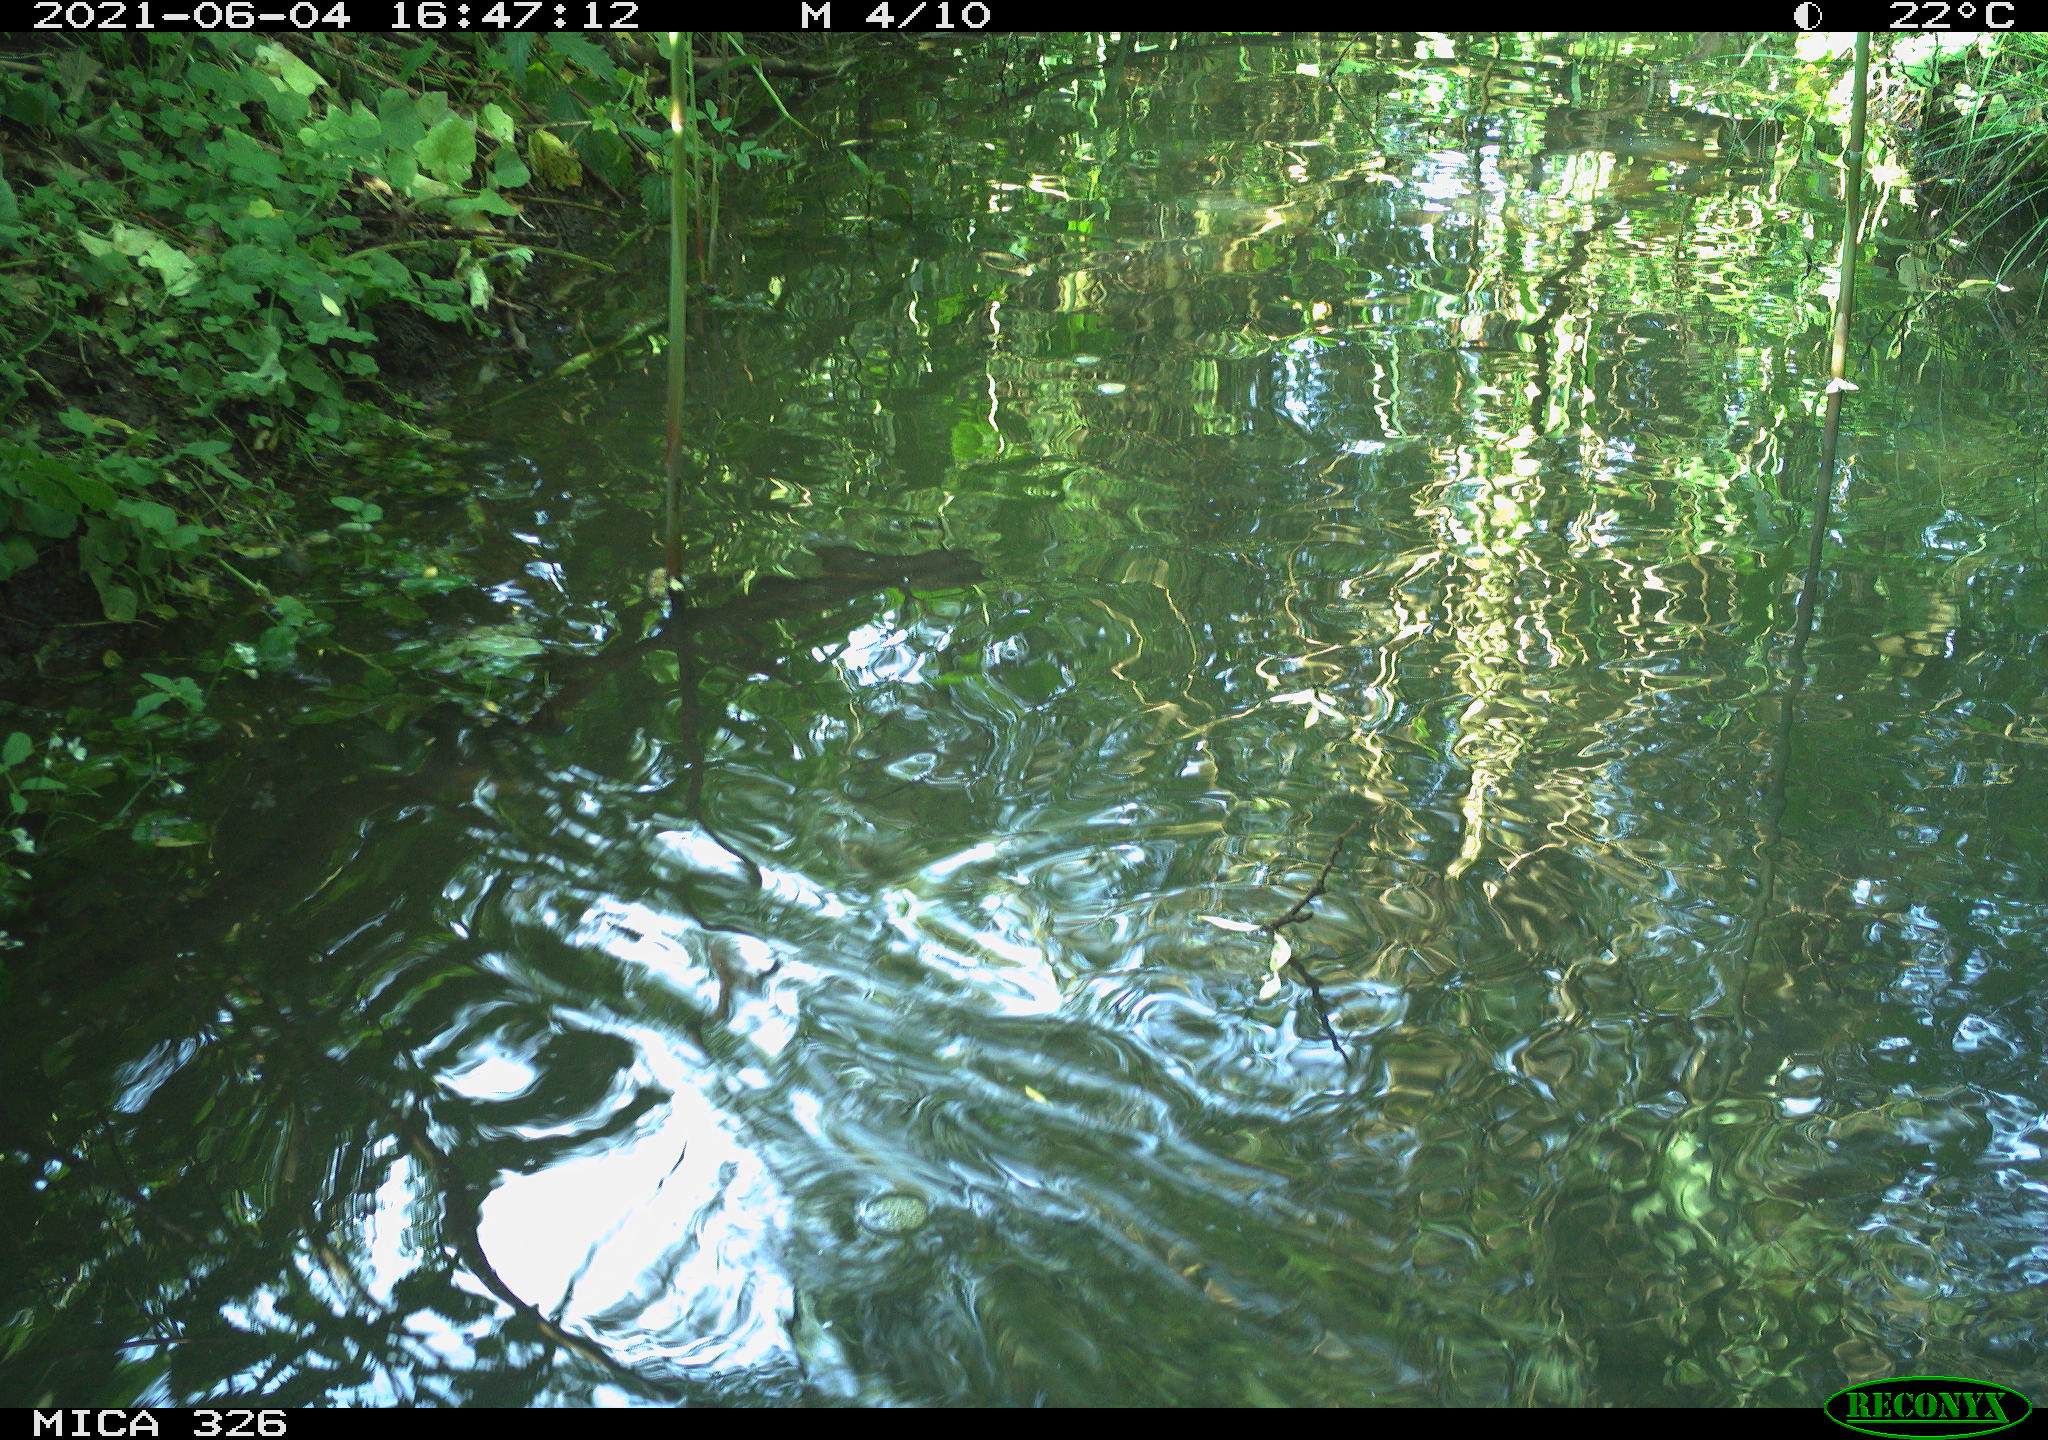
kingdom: Animalia
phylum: Chordata
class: Aves
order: Anseriformes
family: Anatidae
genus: Anas
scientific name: Anas platyrhynchos
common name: Mallard
